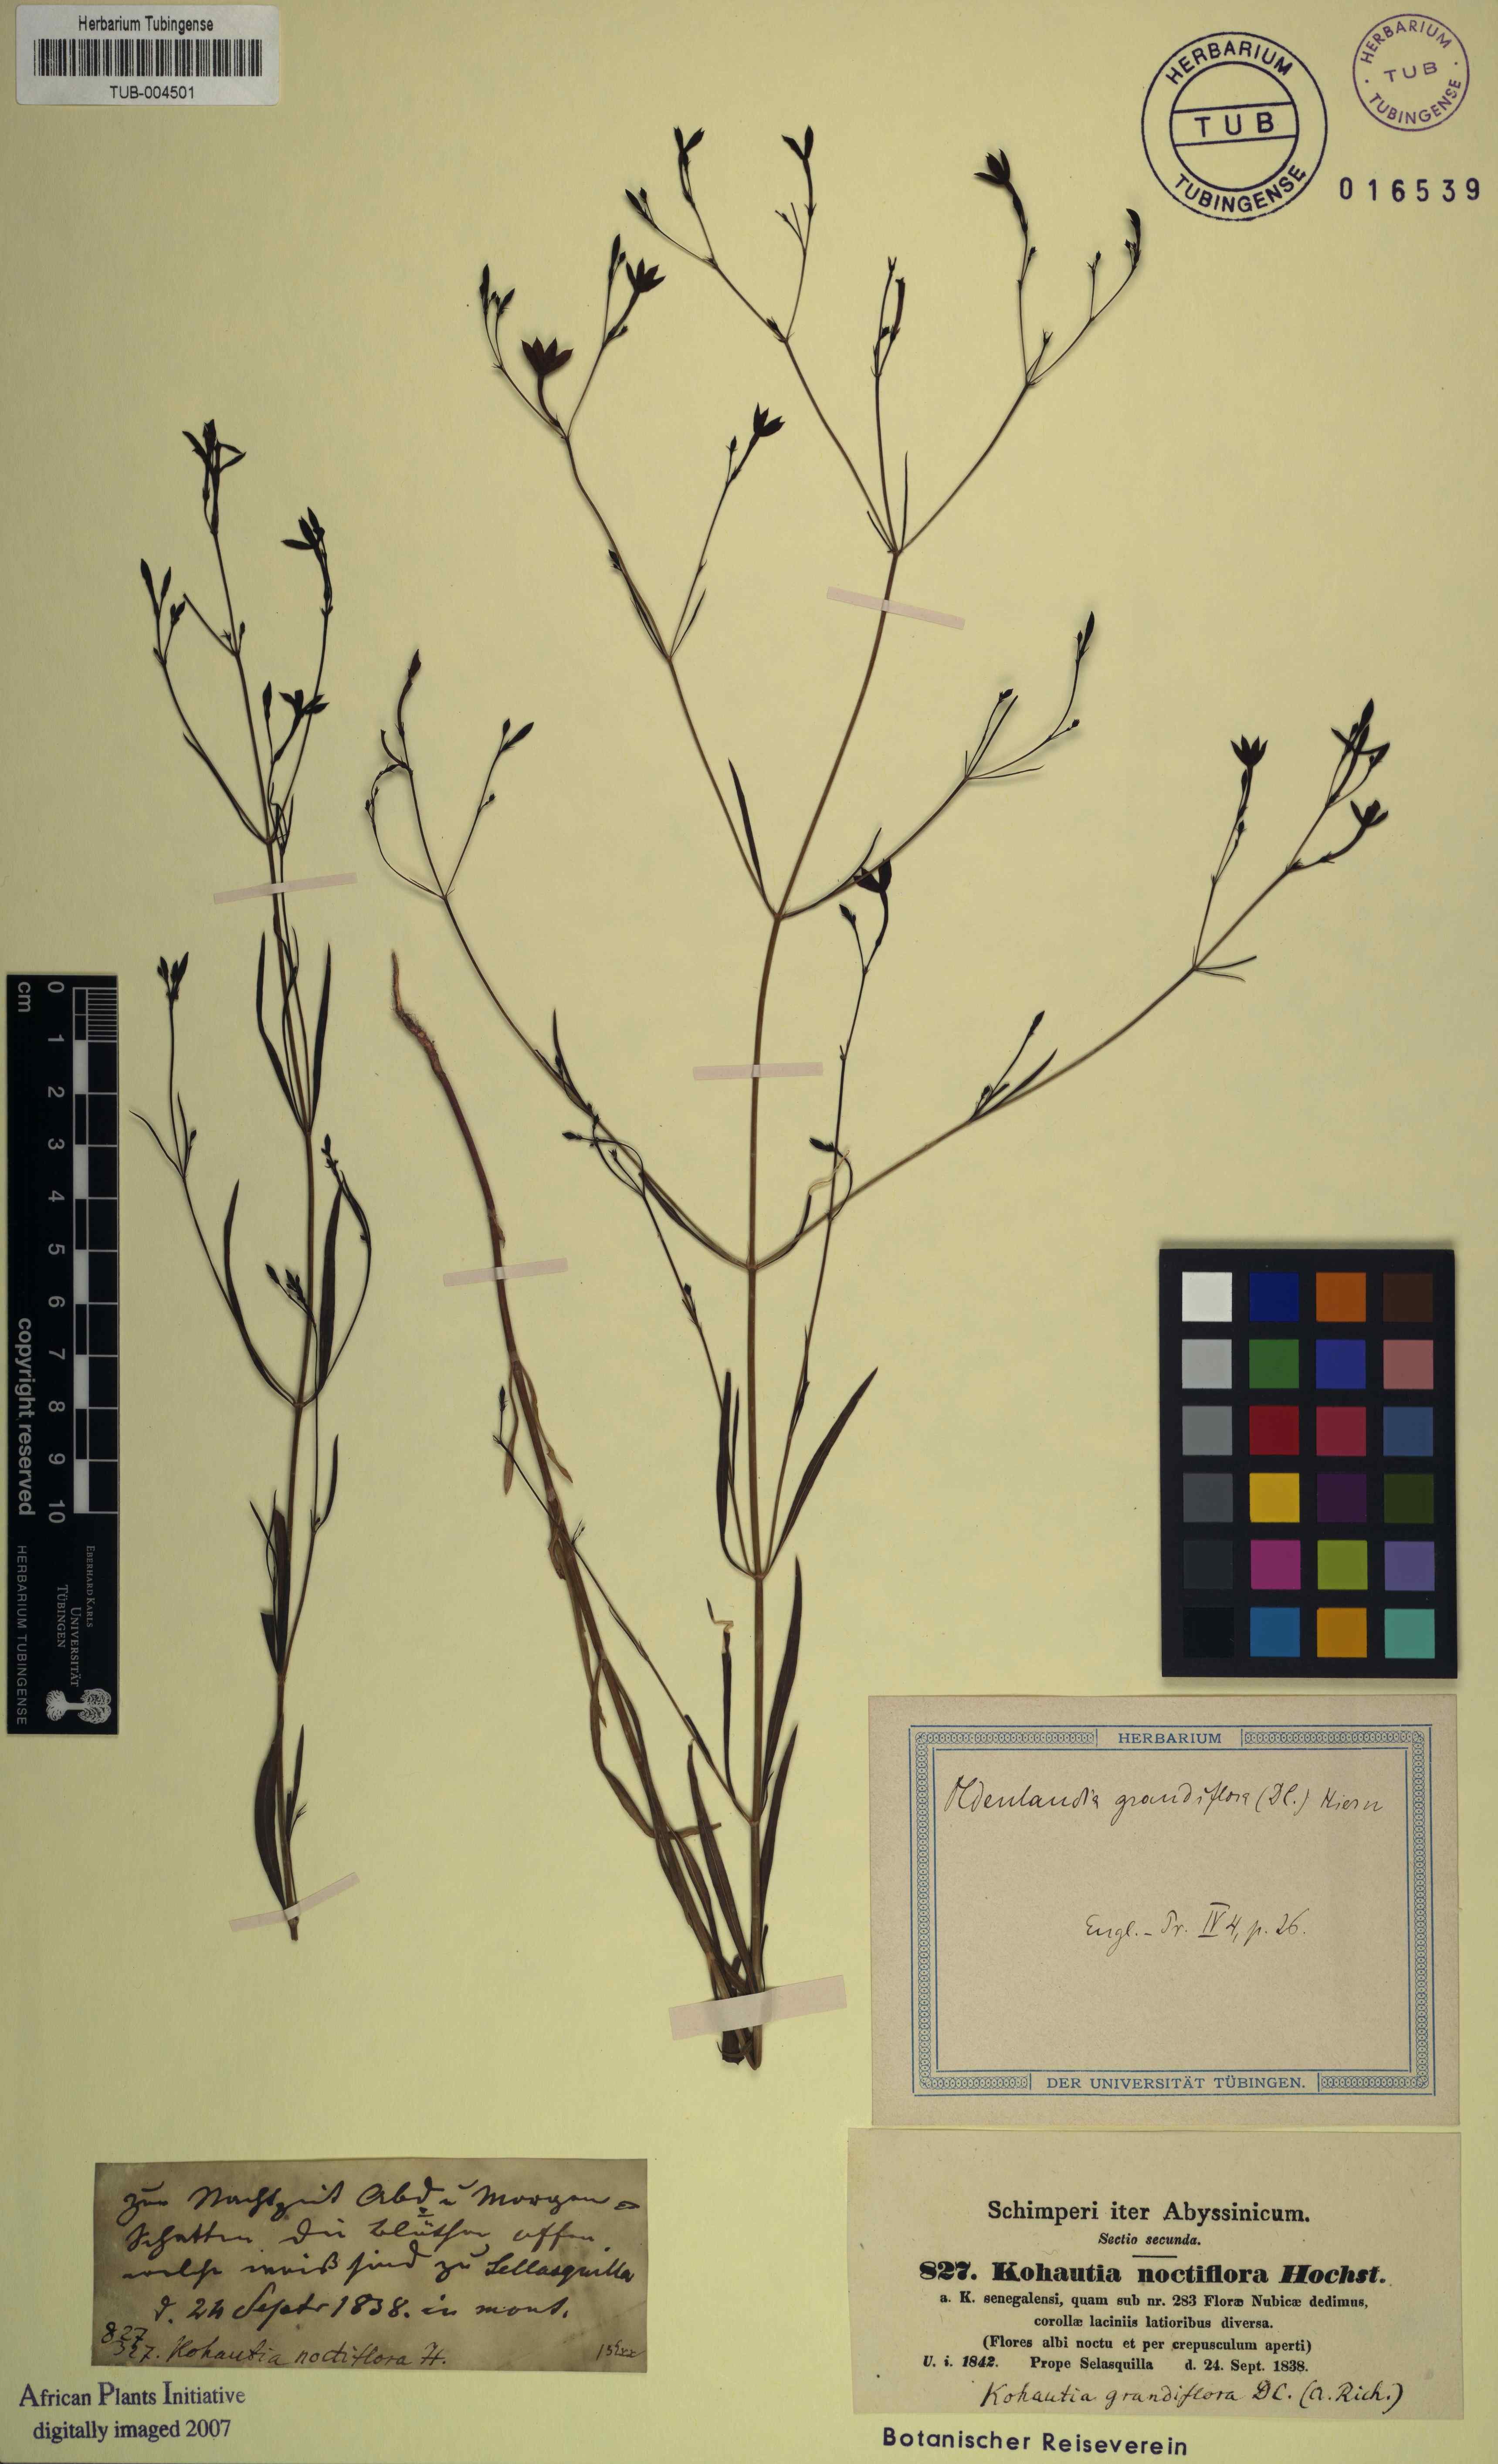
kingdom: Plantae
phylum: Tracheophyta
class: Magnoliopsida
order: Gentianales
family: Rubiaceae
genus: Kohautia
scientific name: Kohautia tenuis
